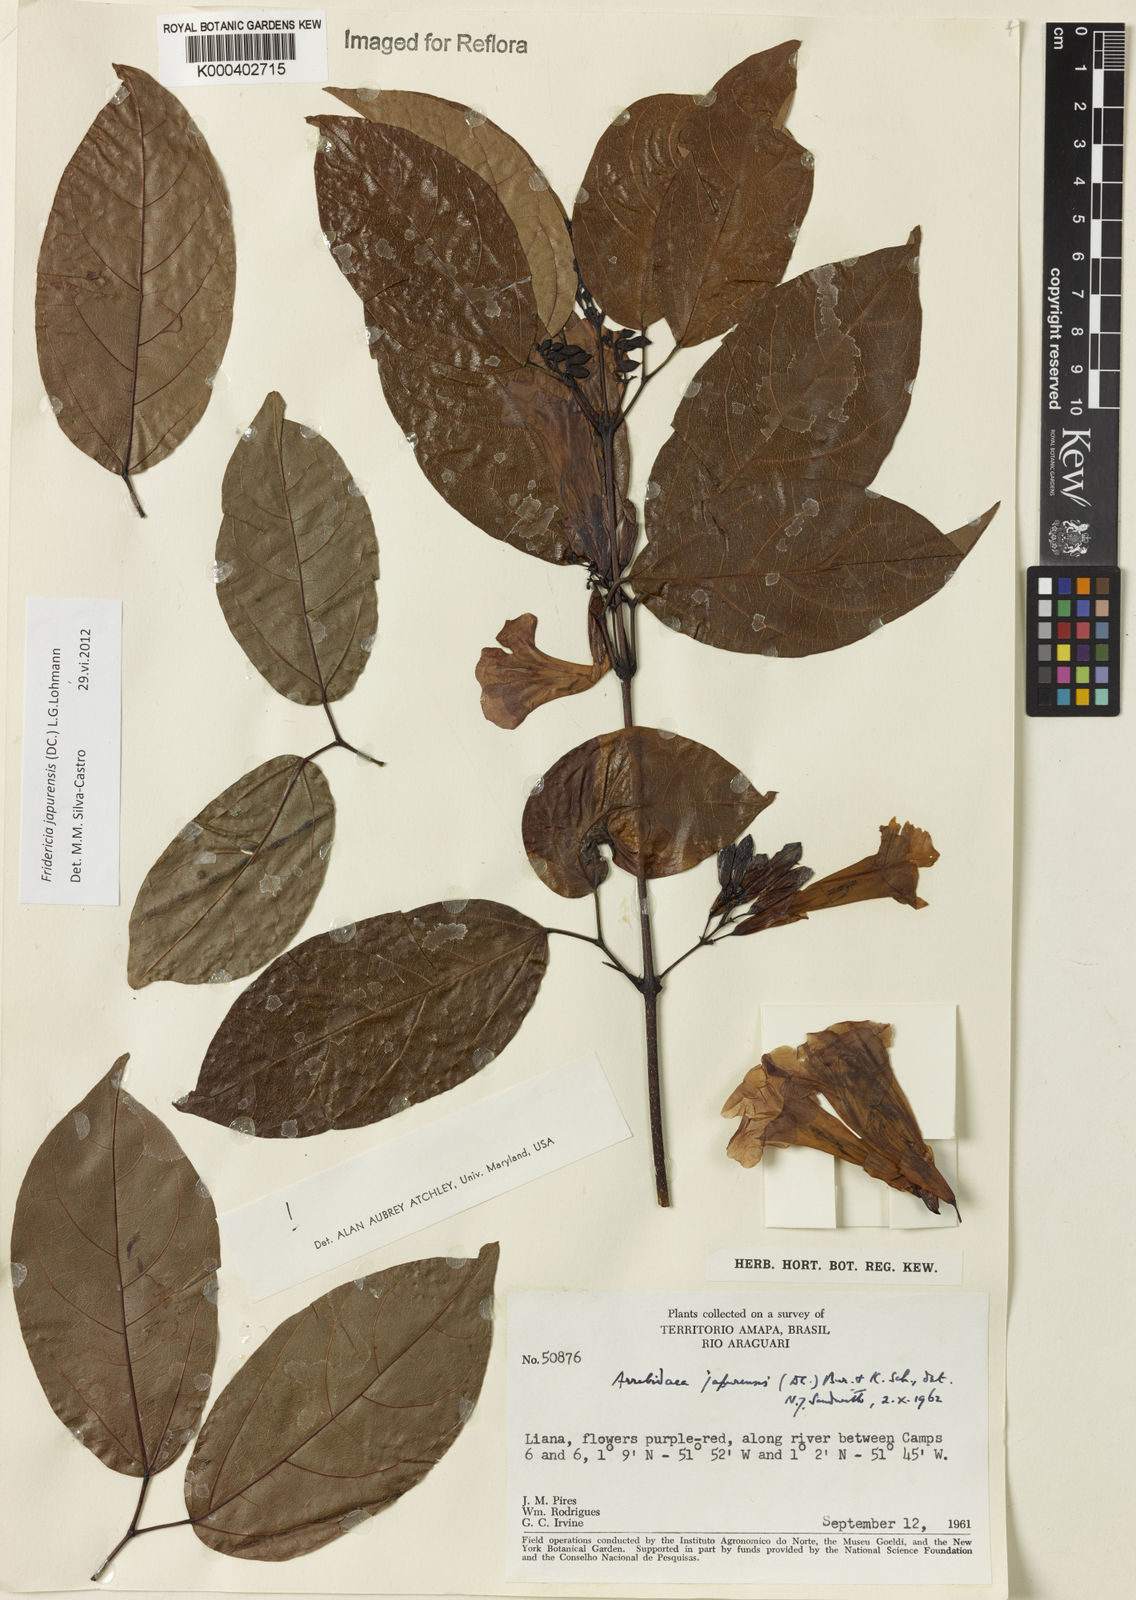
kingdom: Plantae
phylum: Tracheophyta
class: Magnoliopsida
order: Lamiales
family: Bignoniaceae
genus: Fridericia
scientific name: Fridericia japurensis
